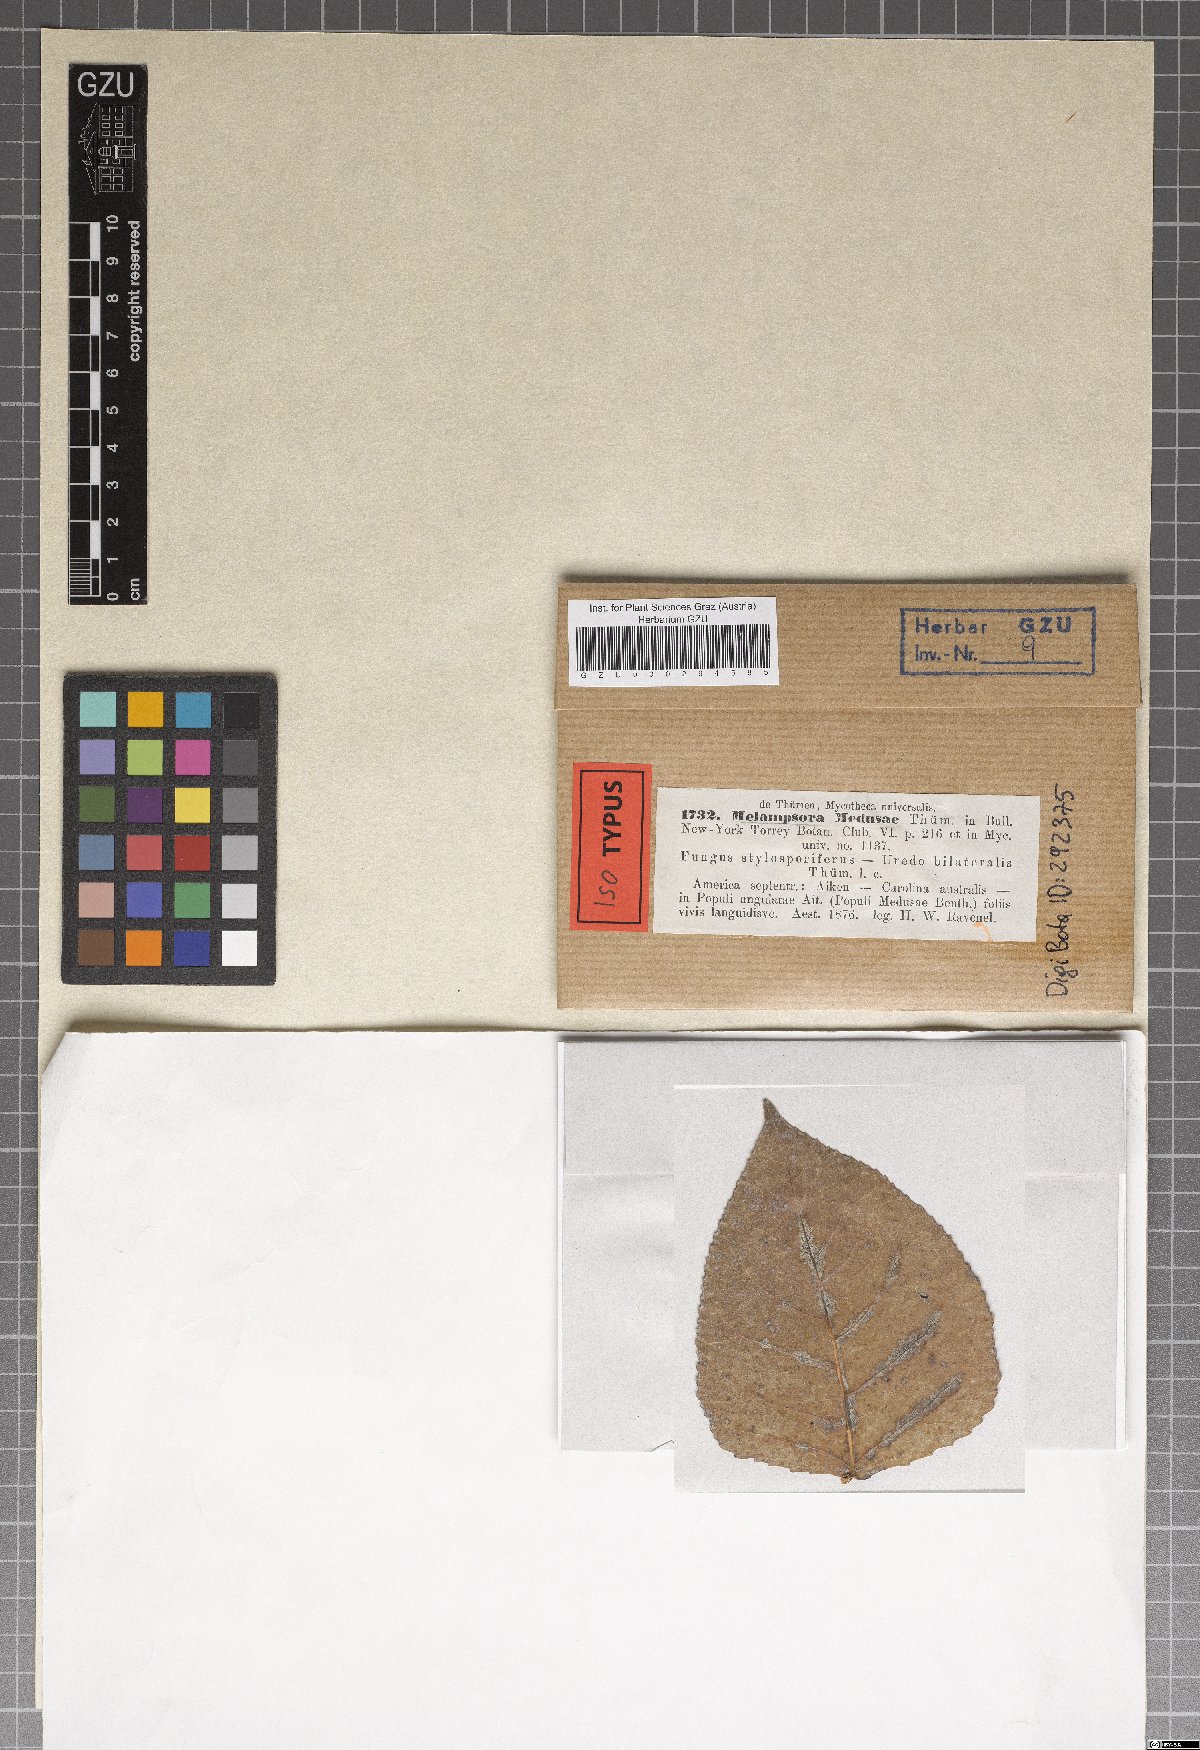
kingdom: Fungi
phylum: Basidiomycota
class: Pucciniomycetes
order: Pucciniales
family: Melampsoraceae
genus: Melampsora
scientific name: Melampsora medusae
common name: Poplar rust
